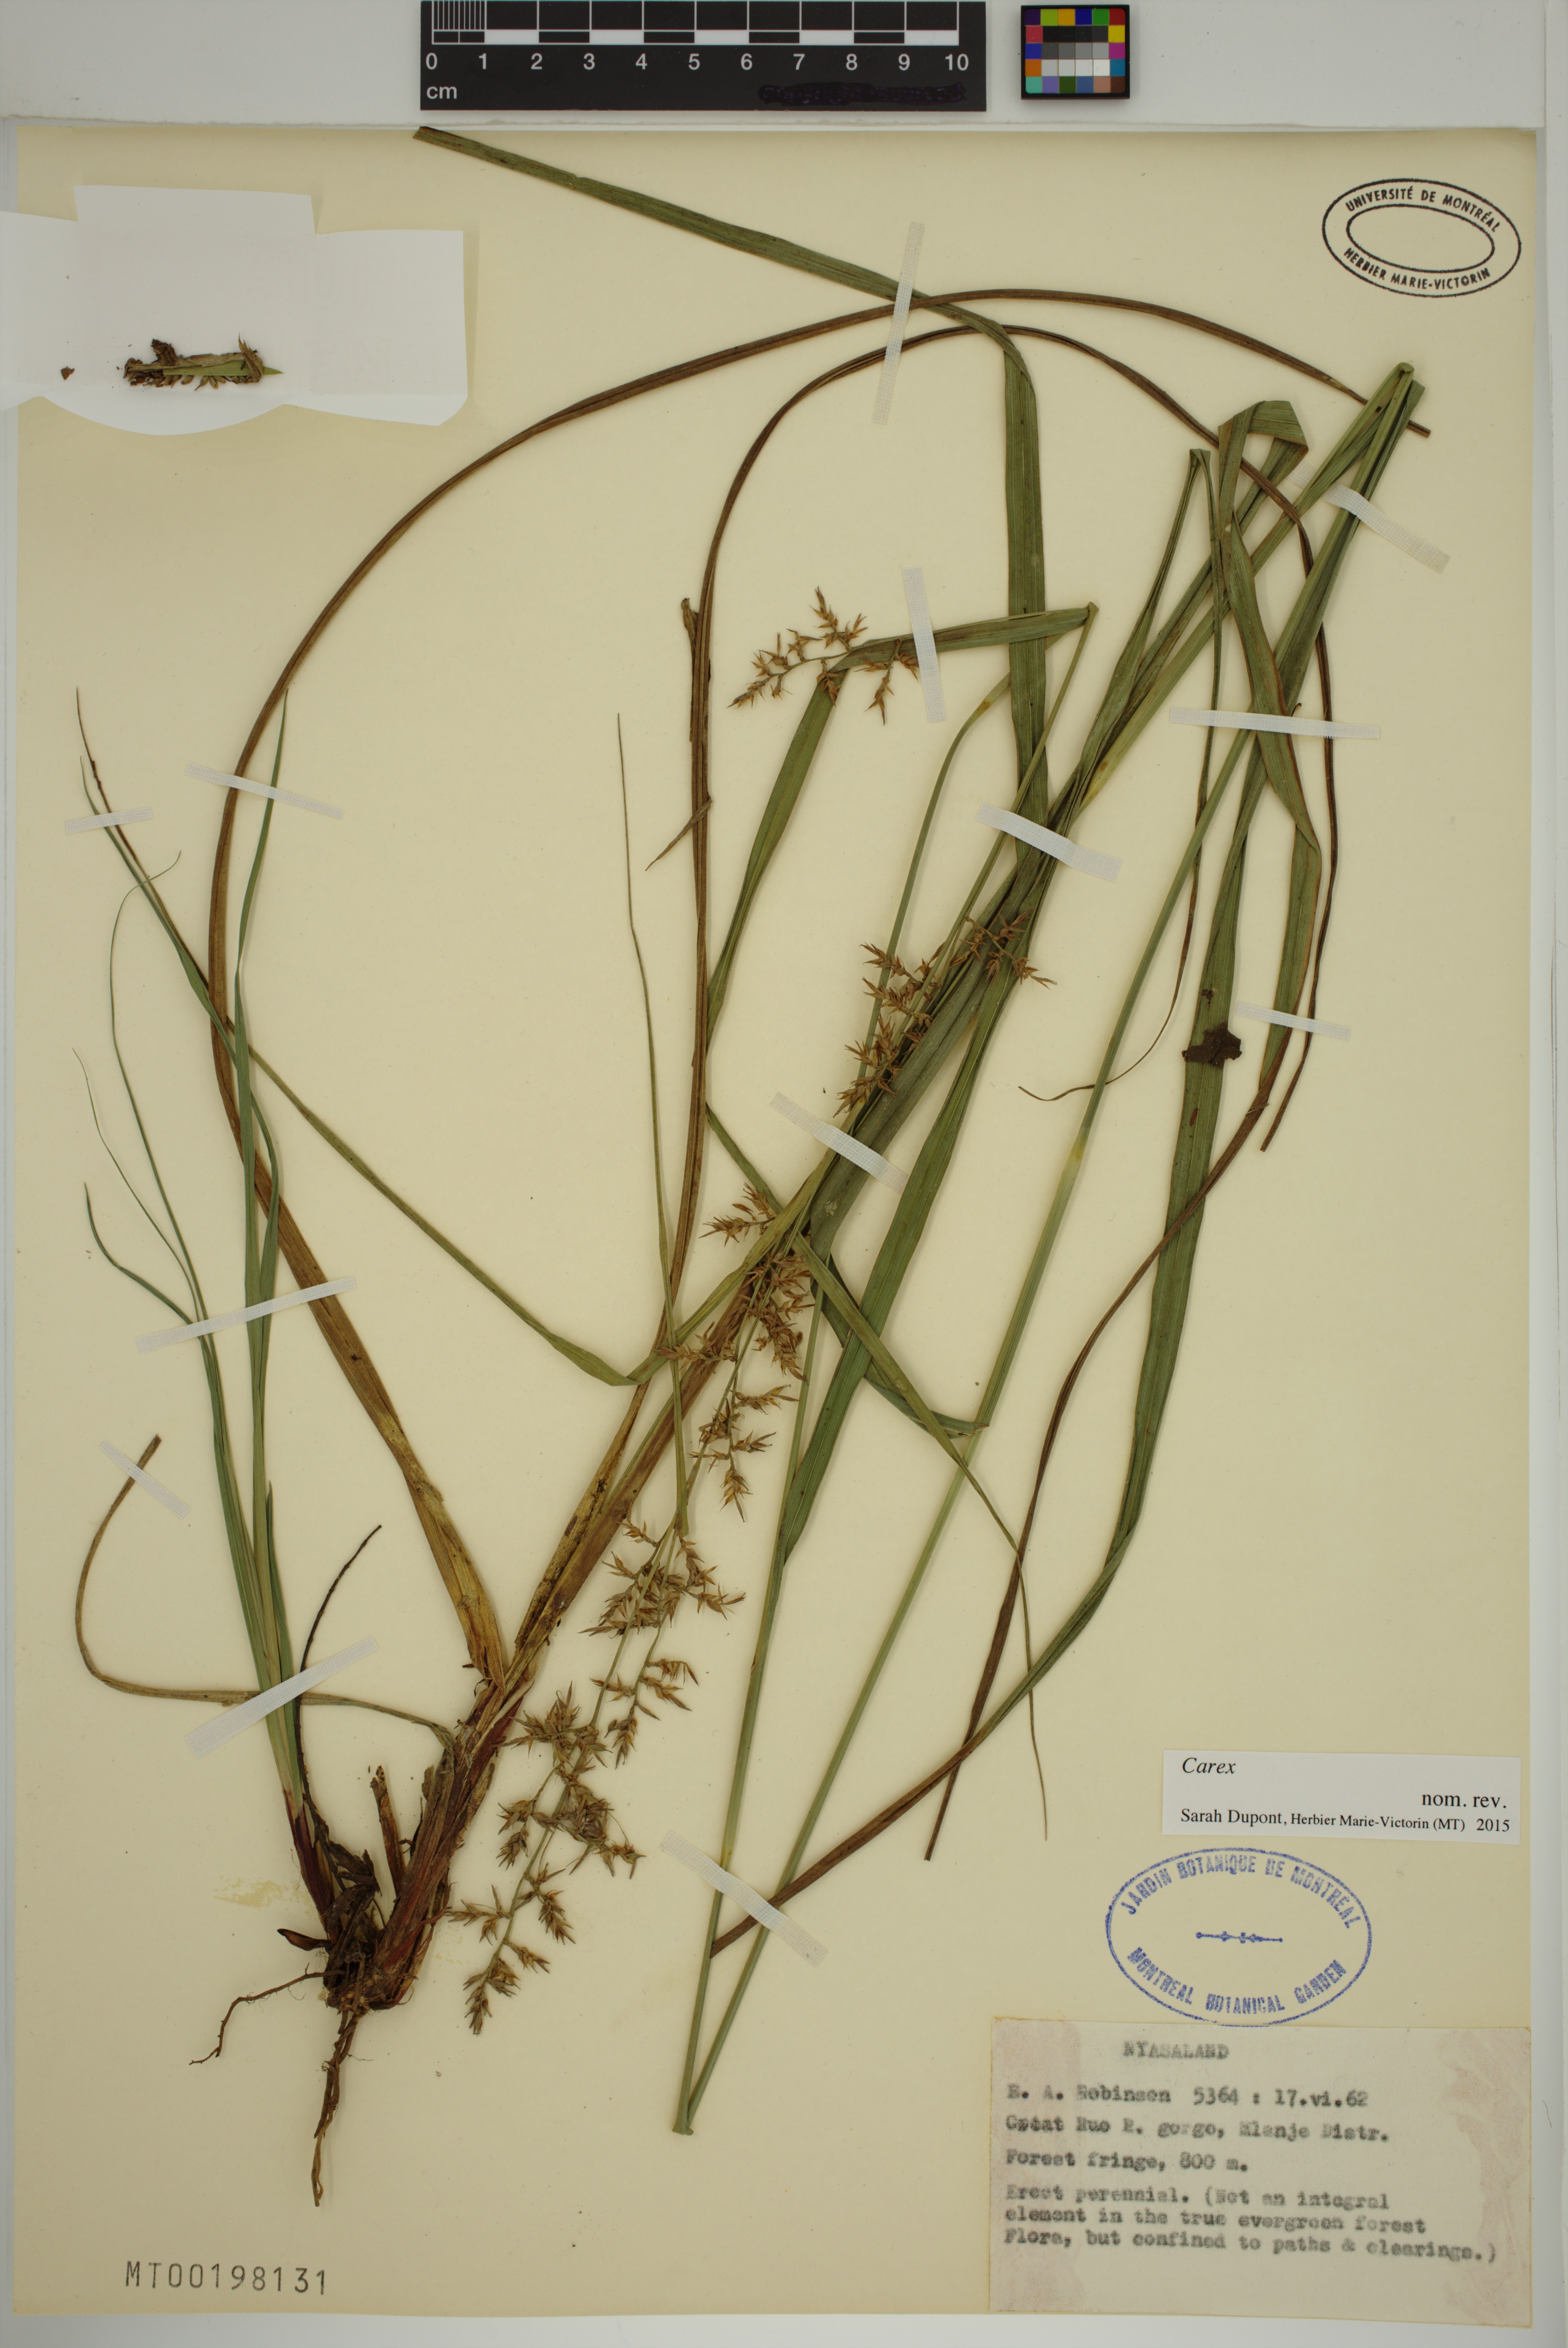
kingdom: Plantae
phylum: Tracheophyta
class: Liliopsida
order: Poales
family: Cyperaceae
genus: Carex
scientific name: Carex
